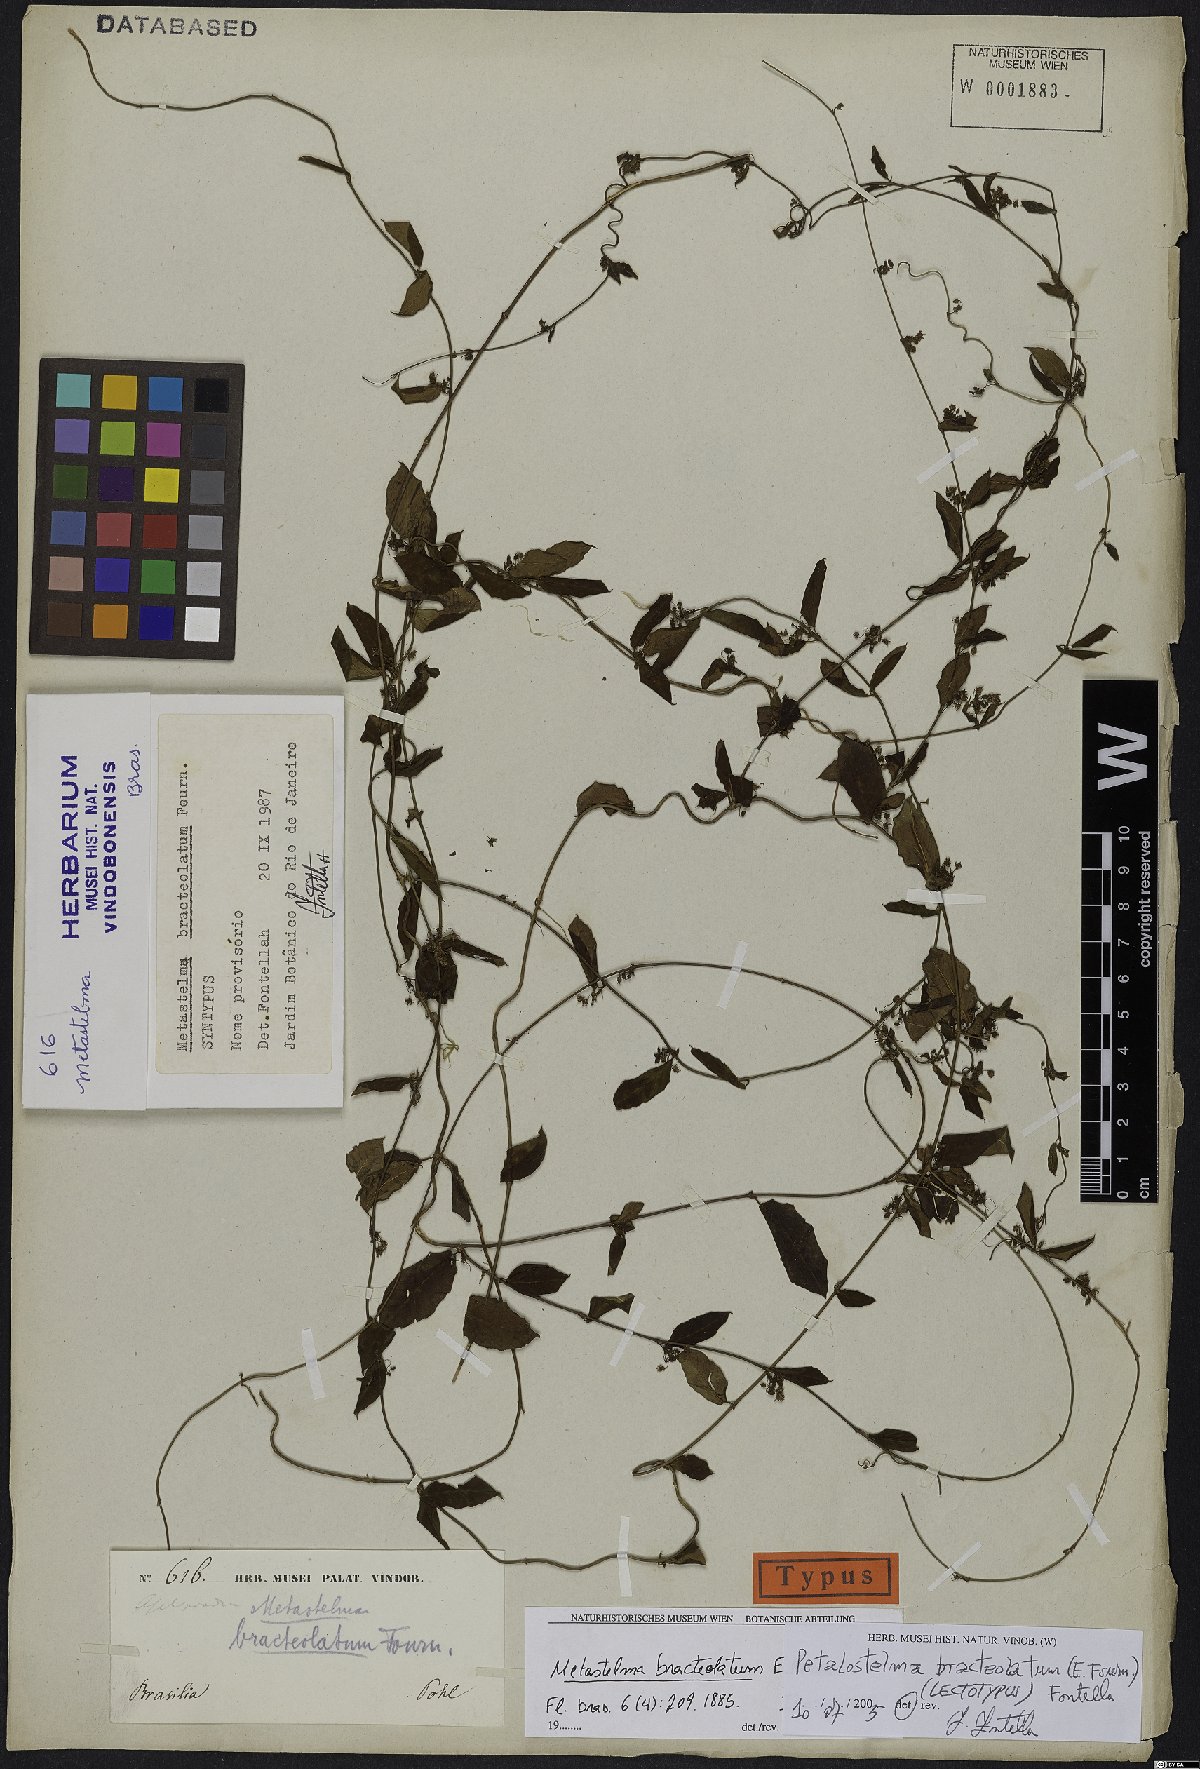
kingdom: Plantae
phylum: Tracheophyta
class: Magnoliopsida
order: Gentianales
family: Apocynaceae
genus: Petalostelma
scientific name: Petalostelma bracteolatum
